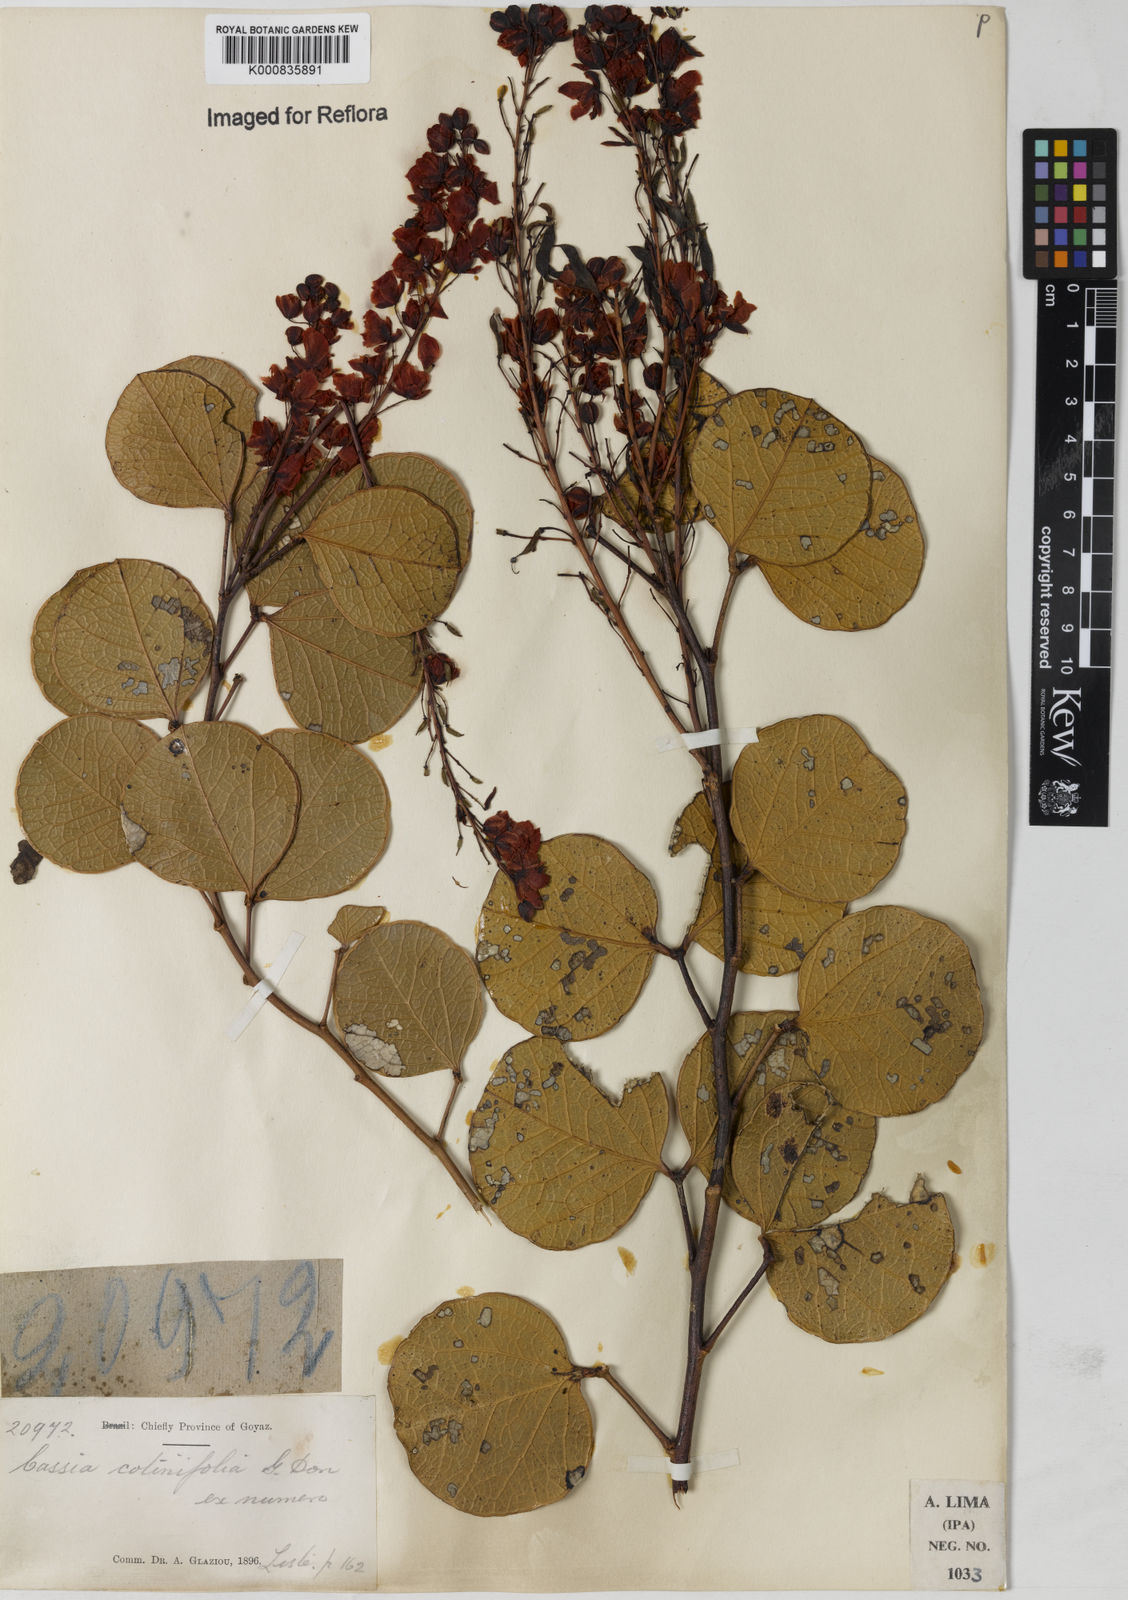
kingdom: Plantae
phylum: Tracheophyta
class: Magnoliopsida
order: Fabales
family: Fabaceae
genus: Chamaecrista
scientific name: Chamaecrista cotinifolia
